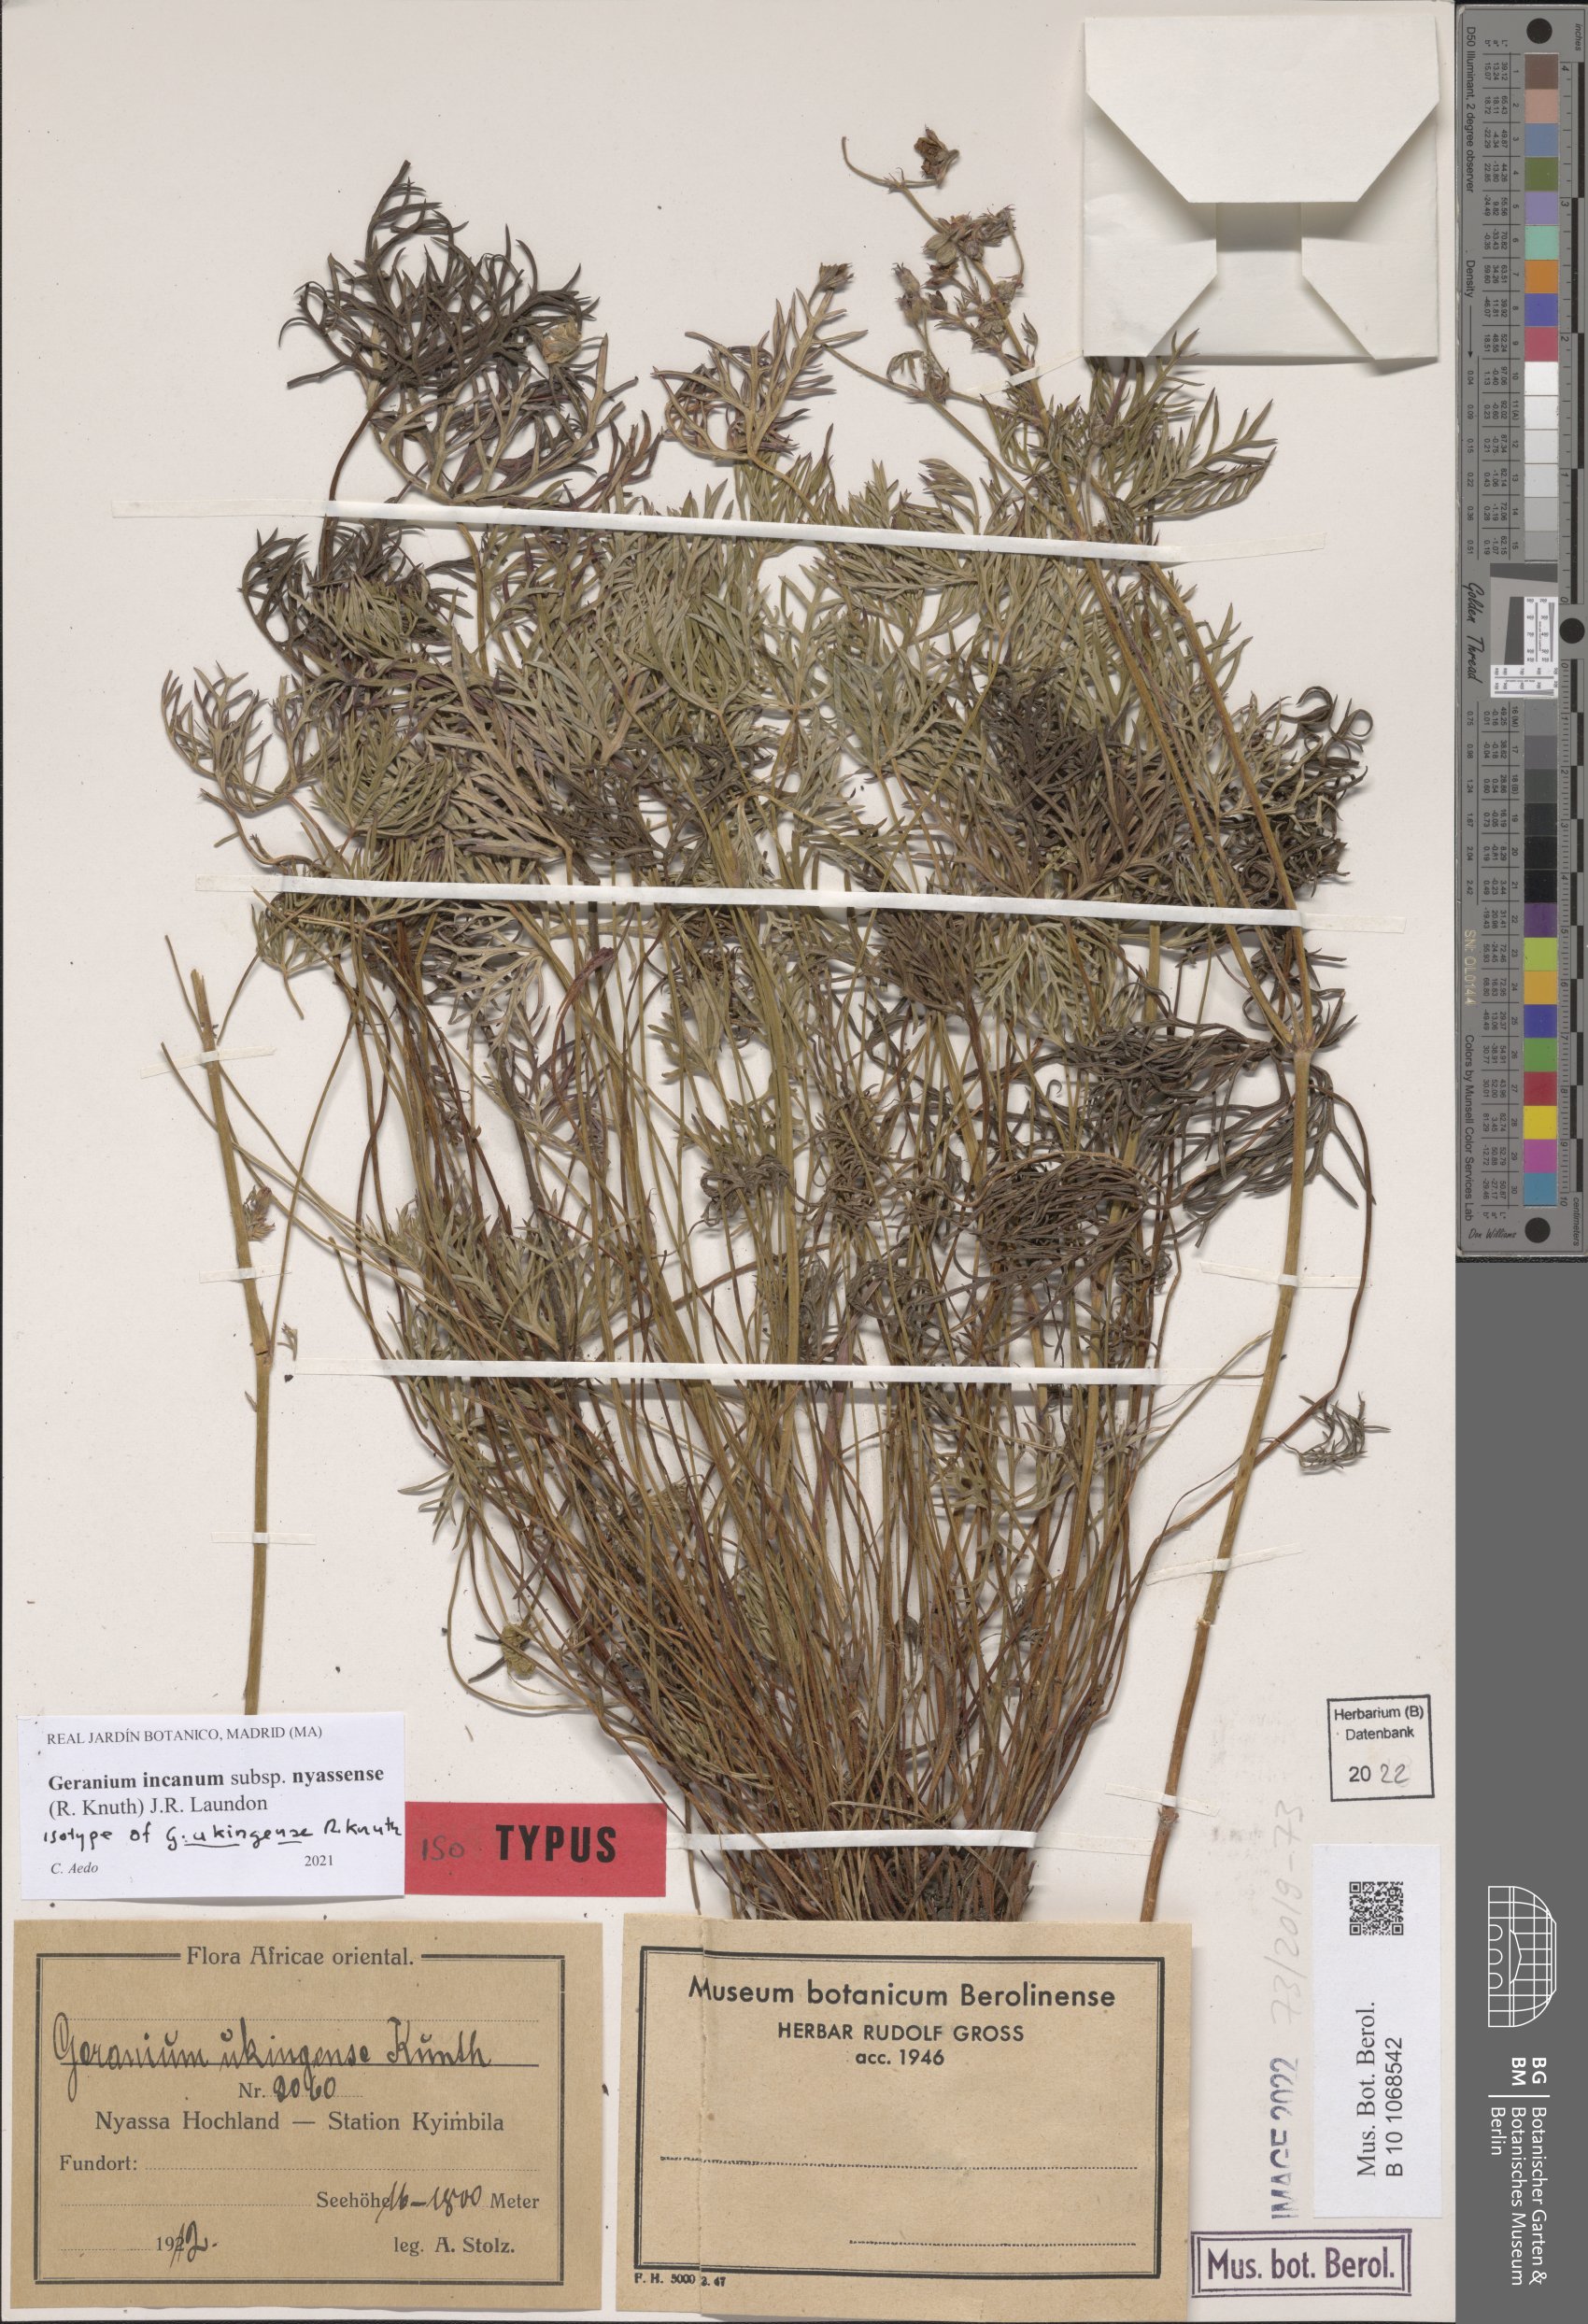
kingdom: Plantae
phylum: Tracheophyta
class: Magnoliopsida
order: Geraniales
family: Geraniaceae
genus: Geranium
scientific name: Geranium nyassense
